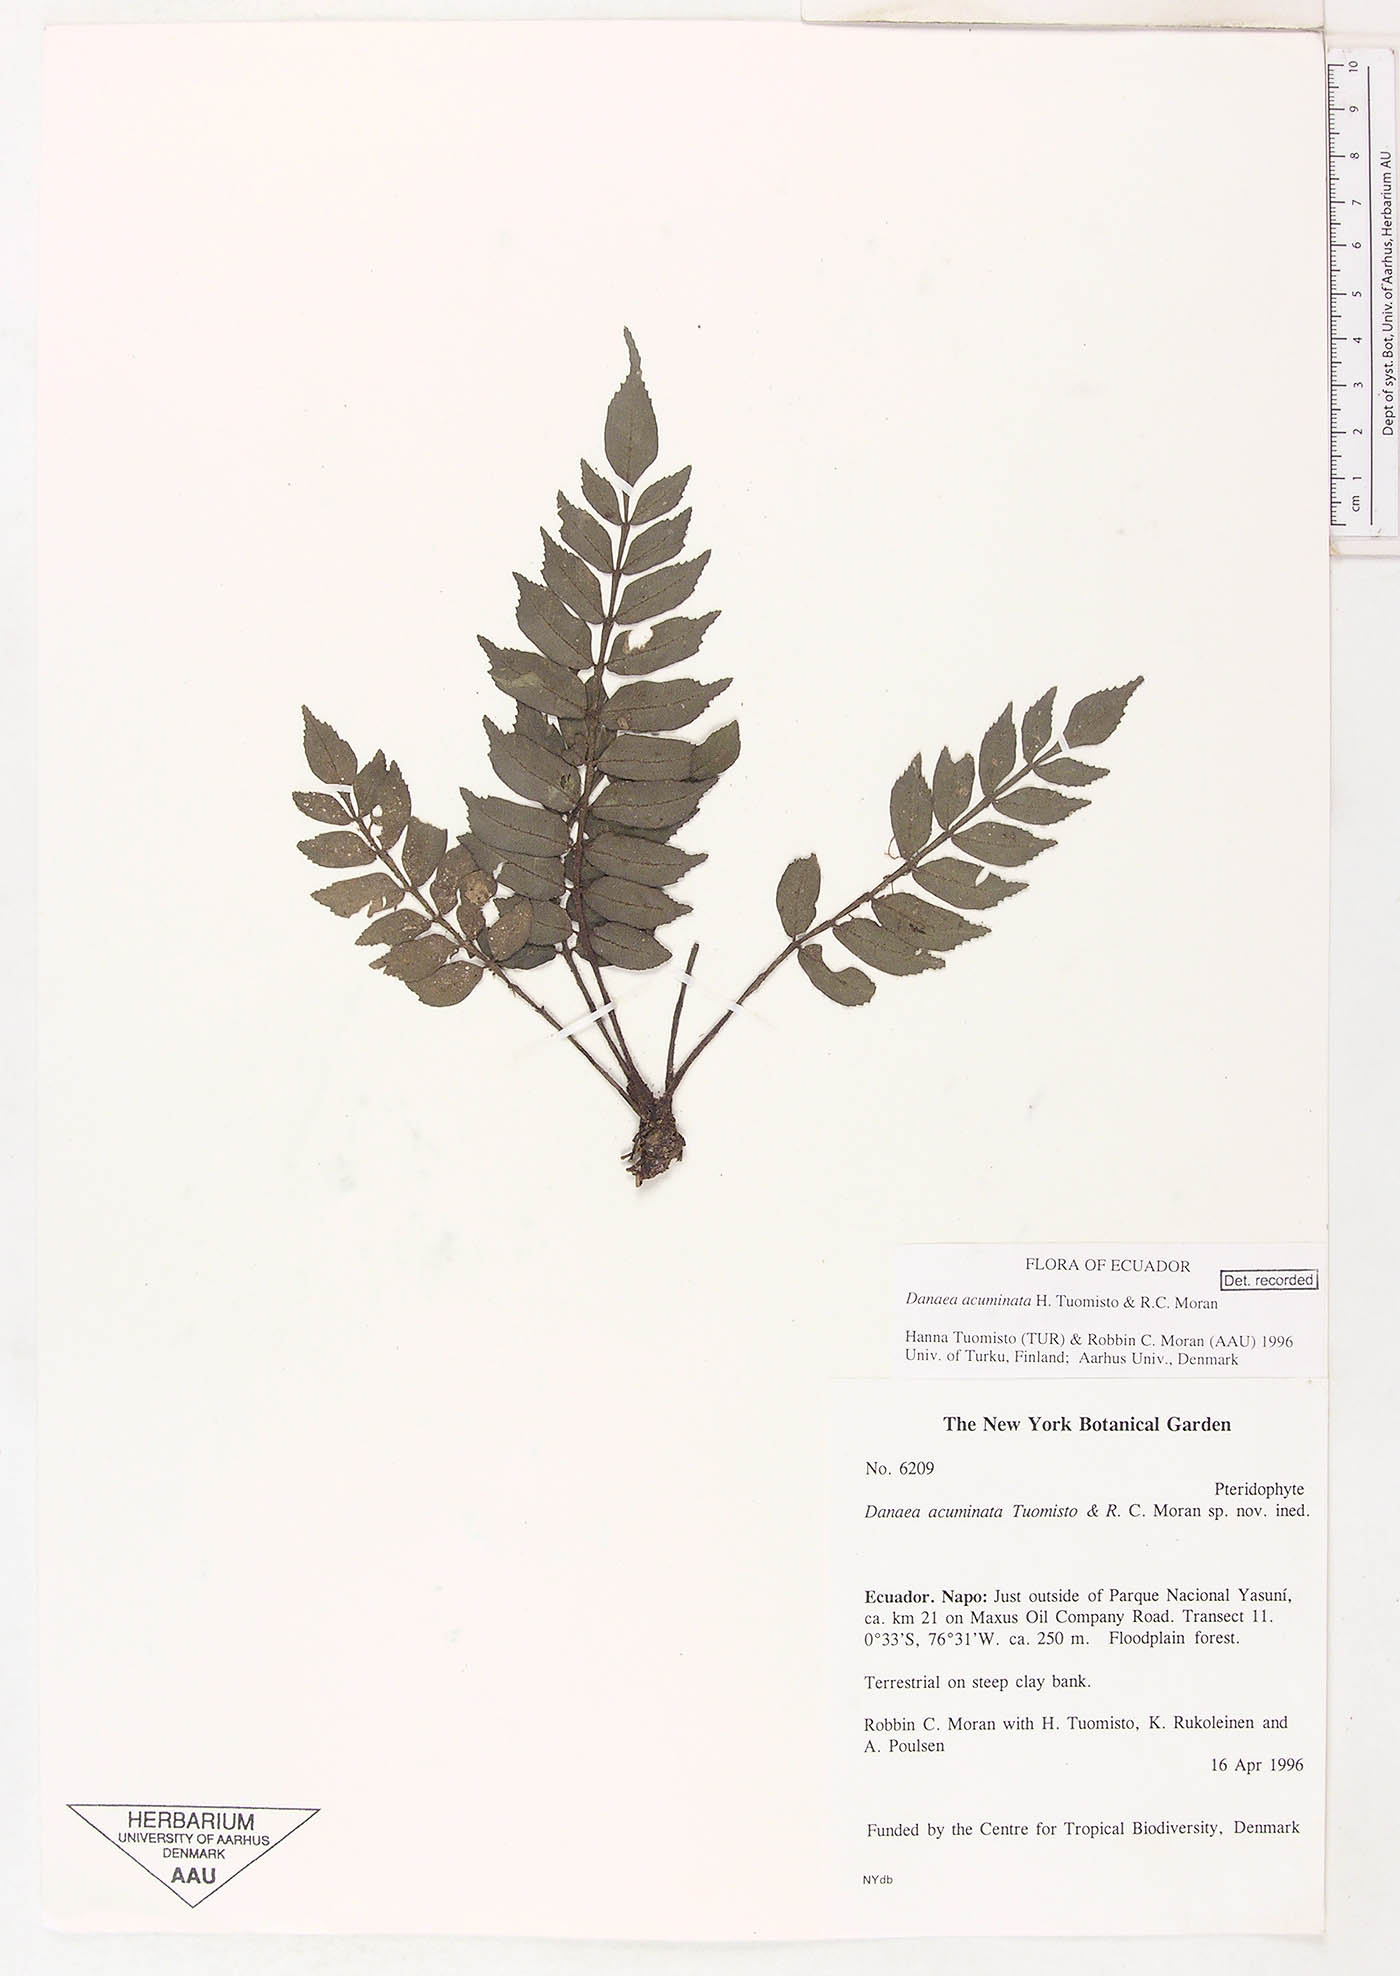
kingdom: Plantae
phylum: Tracheophyta
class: Polypodiopsida
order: Marattiales
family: Marattiaceae
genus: Danaea
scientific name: Danaea acuminata
